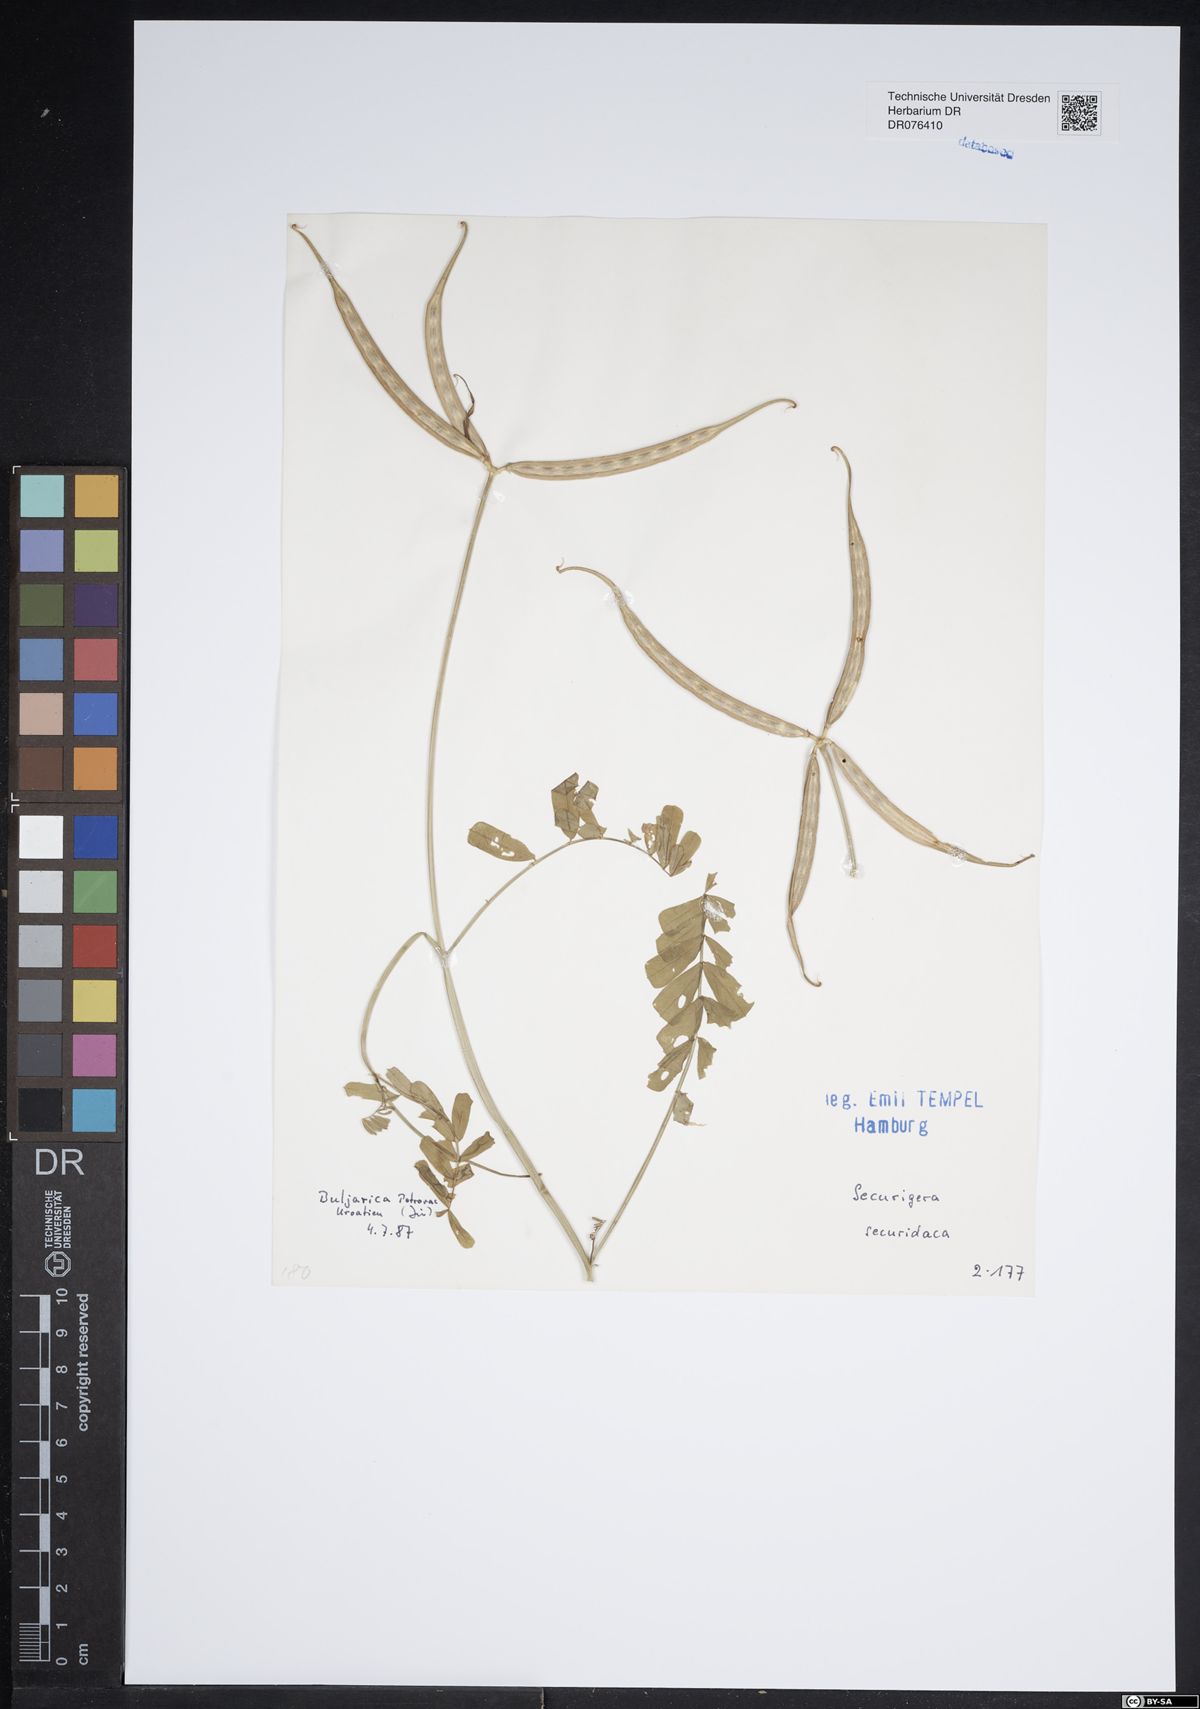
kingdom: Plantae
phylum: Tracheophyta
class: Magnoliopsida
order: Fabales
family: Fabaceae
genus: Coronilla
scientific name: Coronilla securidaca
